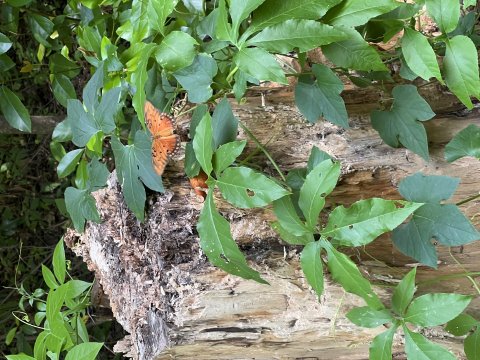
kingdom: Animalia
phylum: Arthropoda
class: Insecta
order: Lepidoptera
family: Nymphalidae
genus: Dione
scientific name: Dione vanillae
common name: Gulf Fritillary
